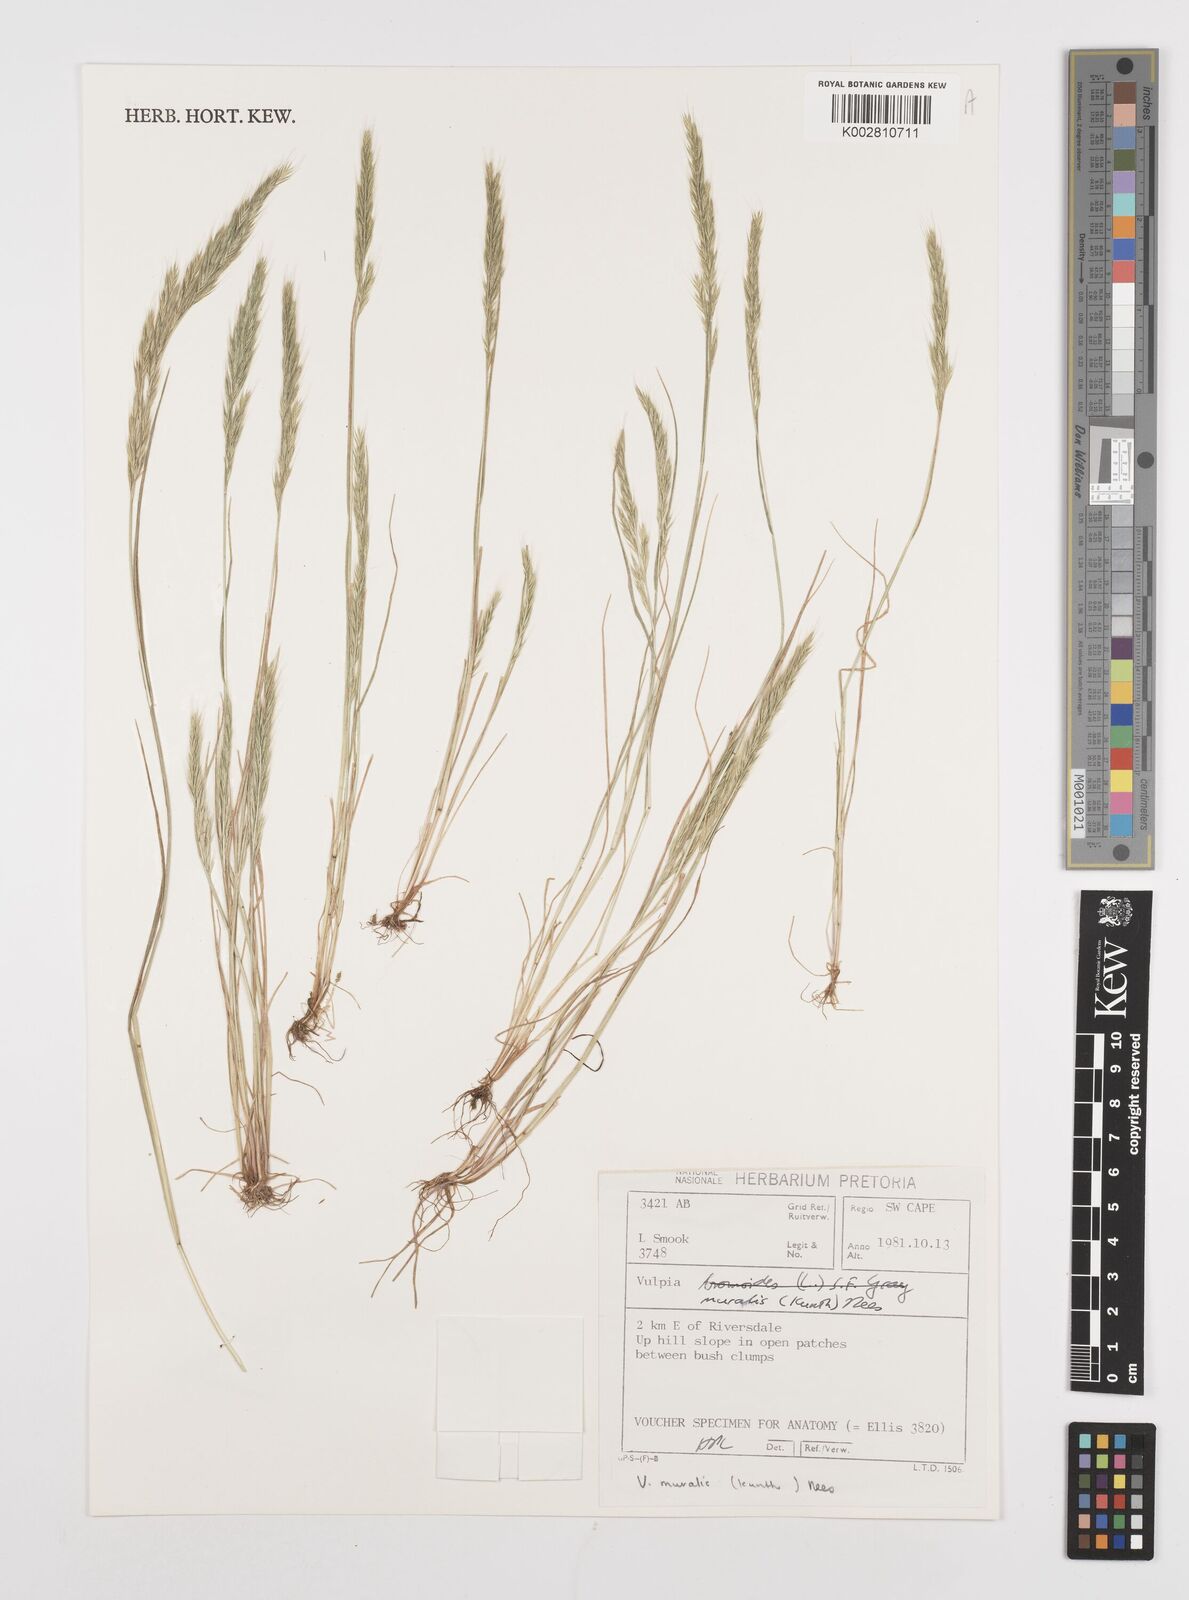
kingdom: Plantae
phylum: Tracheophyta
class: Liliopsida
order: Poales
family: Poaceae
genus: Festuca
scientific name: Festuca muralis
